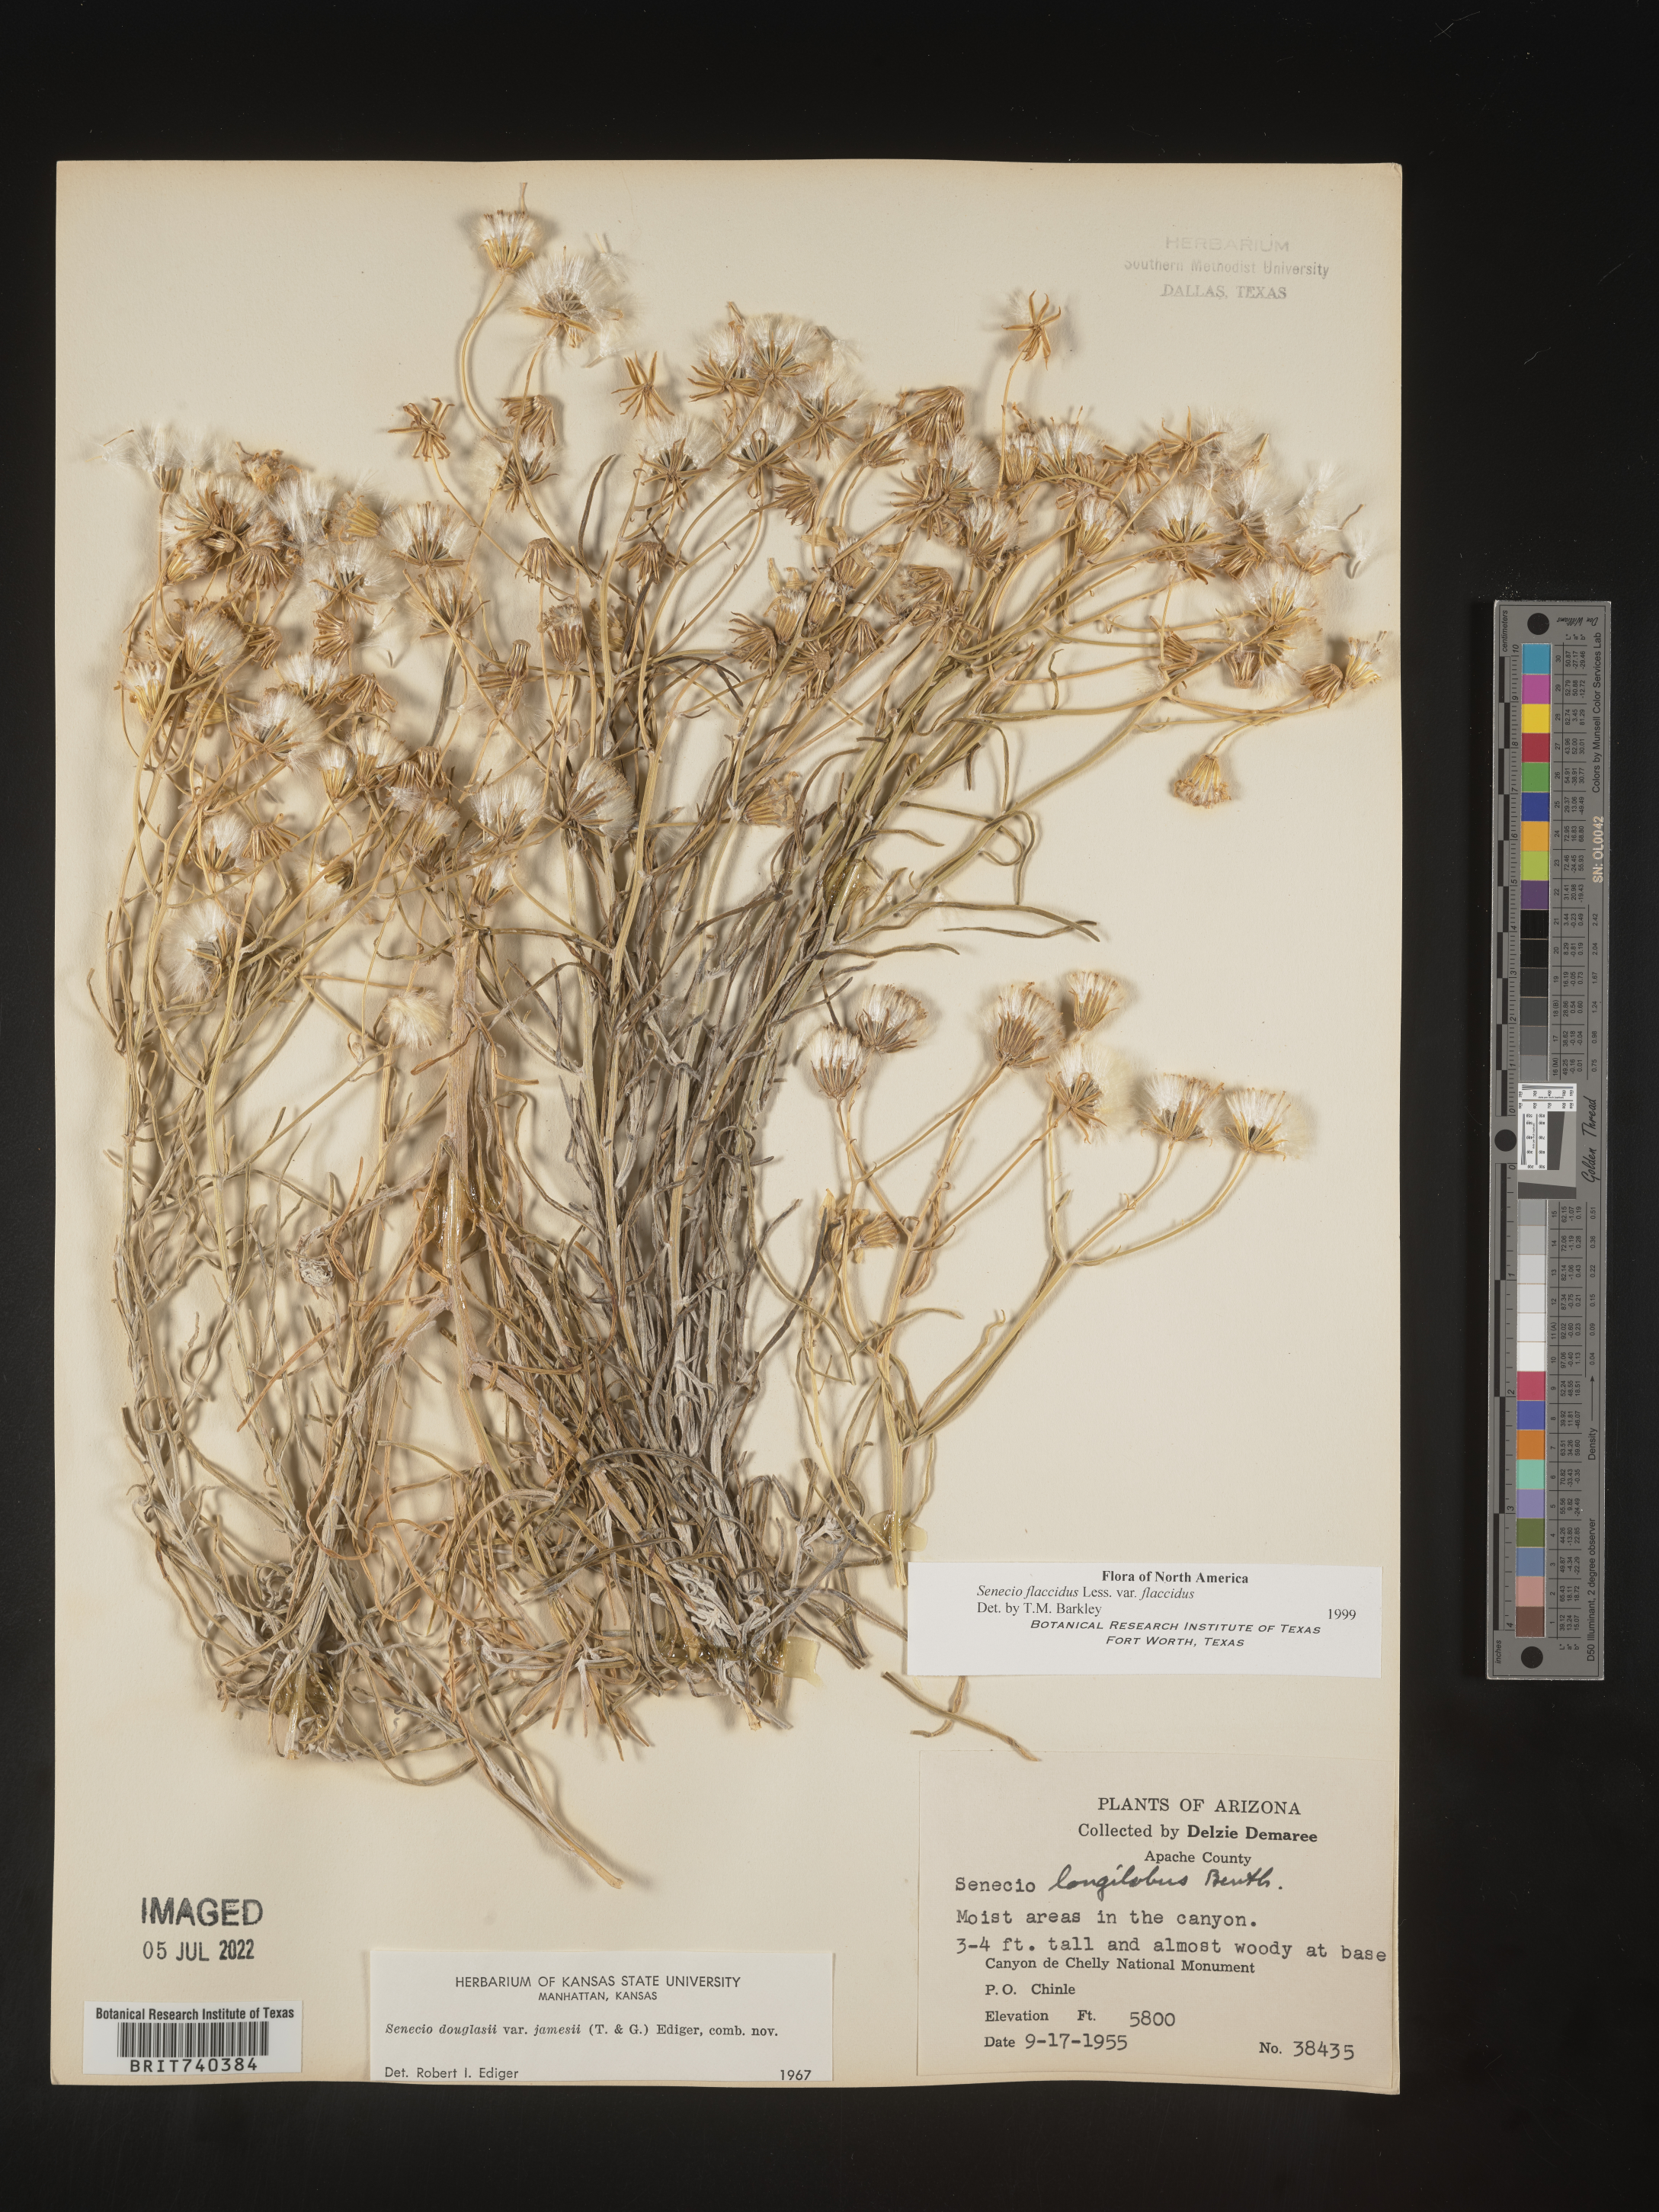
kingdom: Plantae
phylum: Tracheophyta
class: Magnoliopsida
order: Asterales
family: Asteraceae
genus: Senecio
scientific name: Senecio flaccidus
